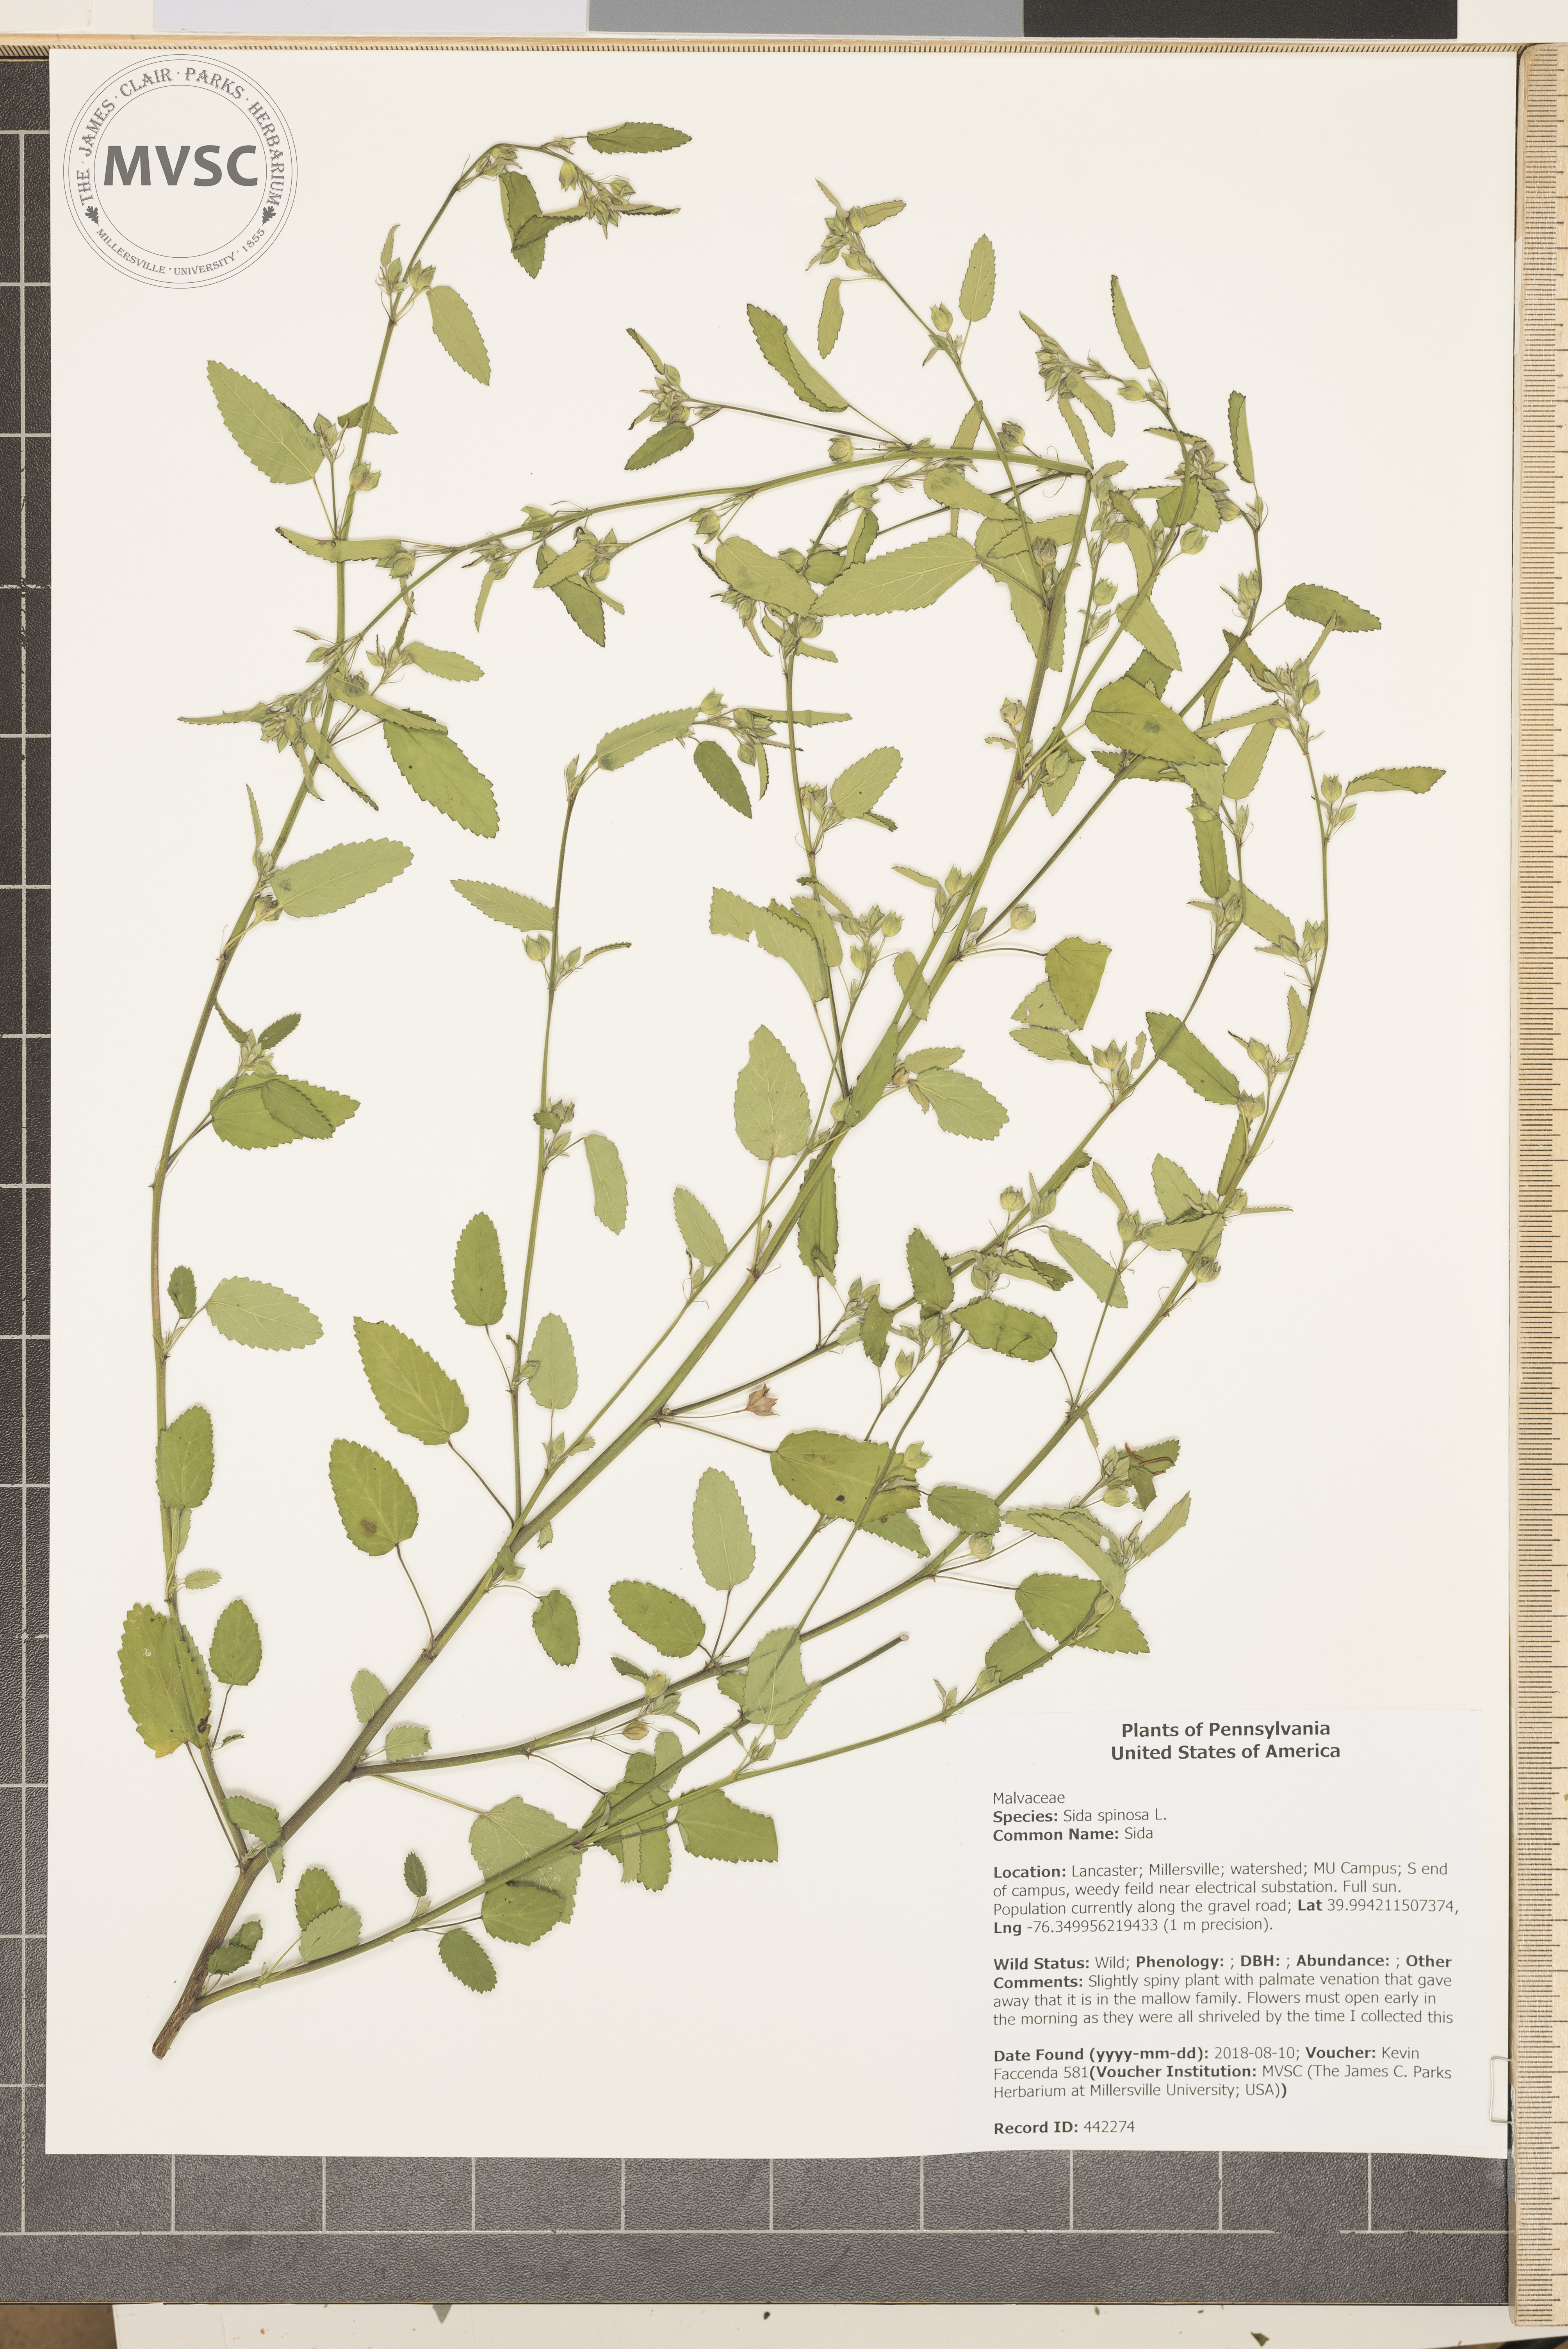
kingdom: Plantae
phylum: Tracheophyta
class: Magnoliopsida
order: Malvales
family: Malvaceae
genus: Sida
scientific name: Sida spinosa
